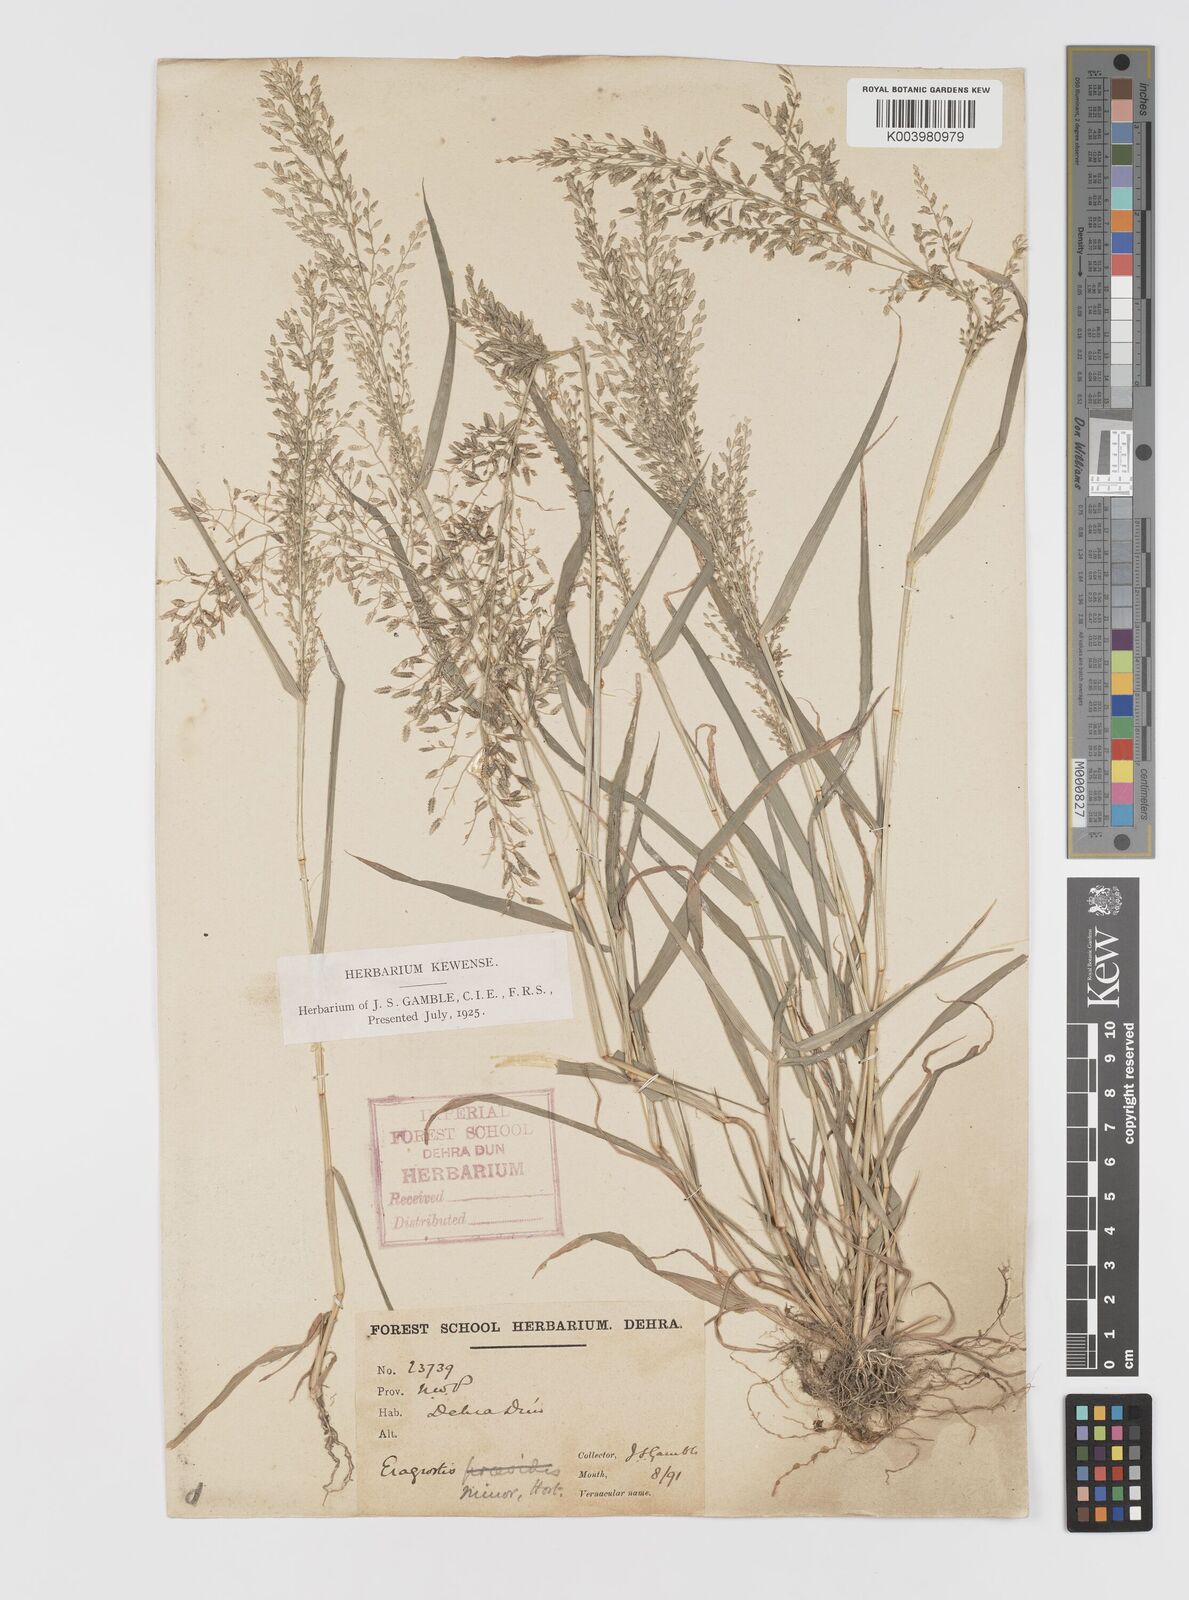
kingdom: Plantae
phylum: Tracheophyta
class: Liliopsida
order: Poales
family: Poaceae
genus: Eragrostis
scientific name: Eragrostis minor
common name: Small love-grass
